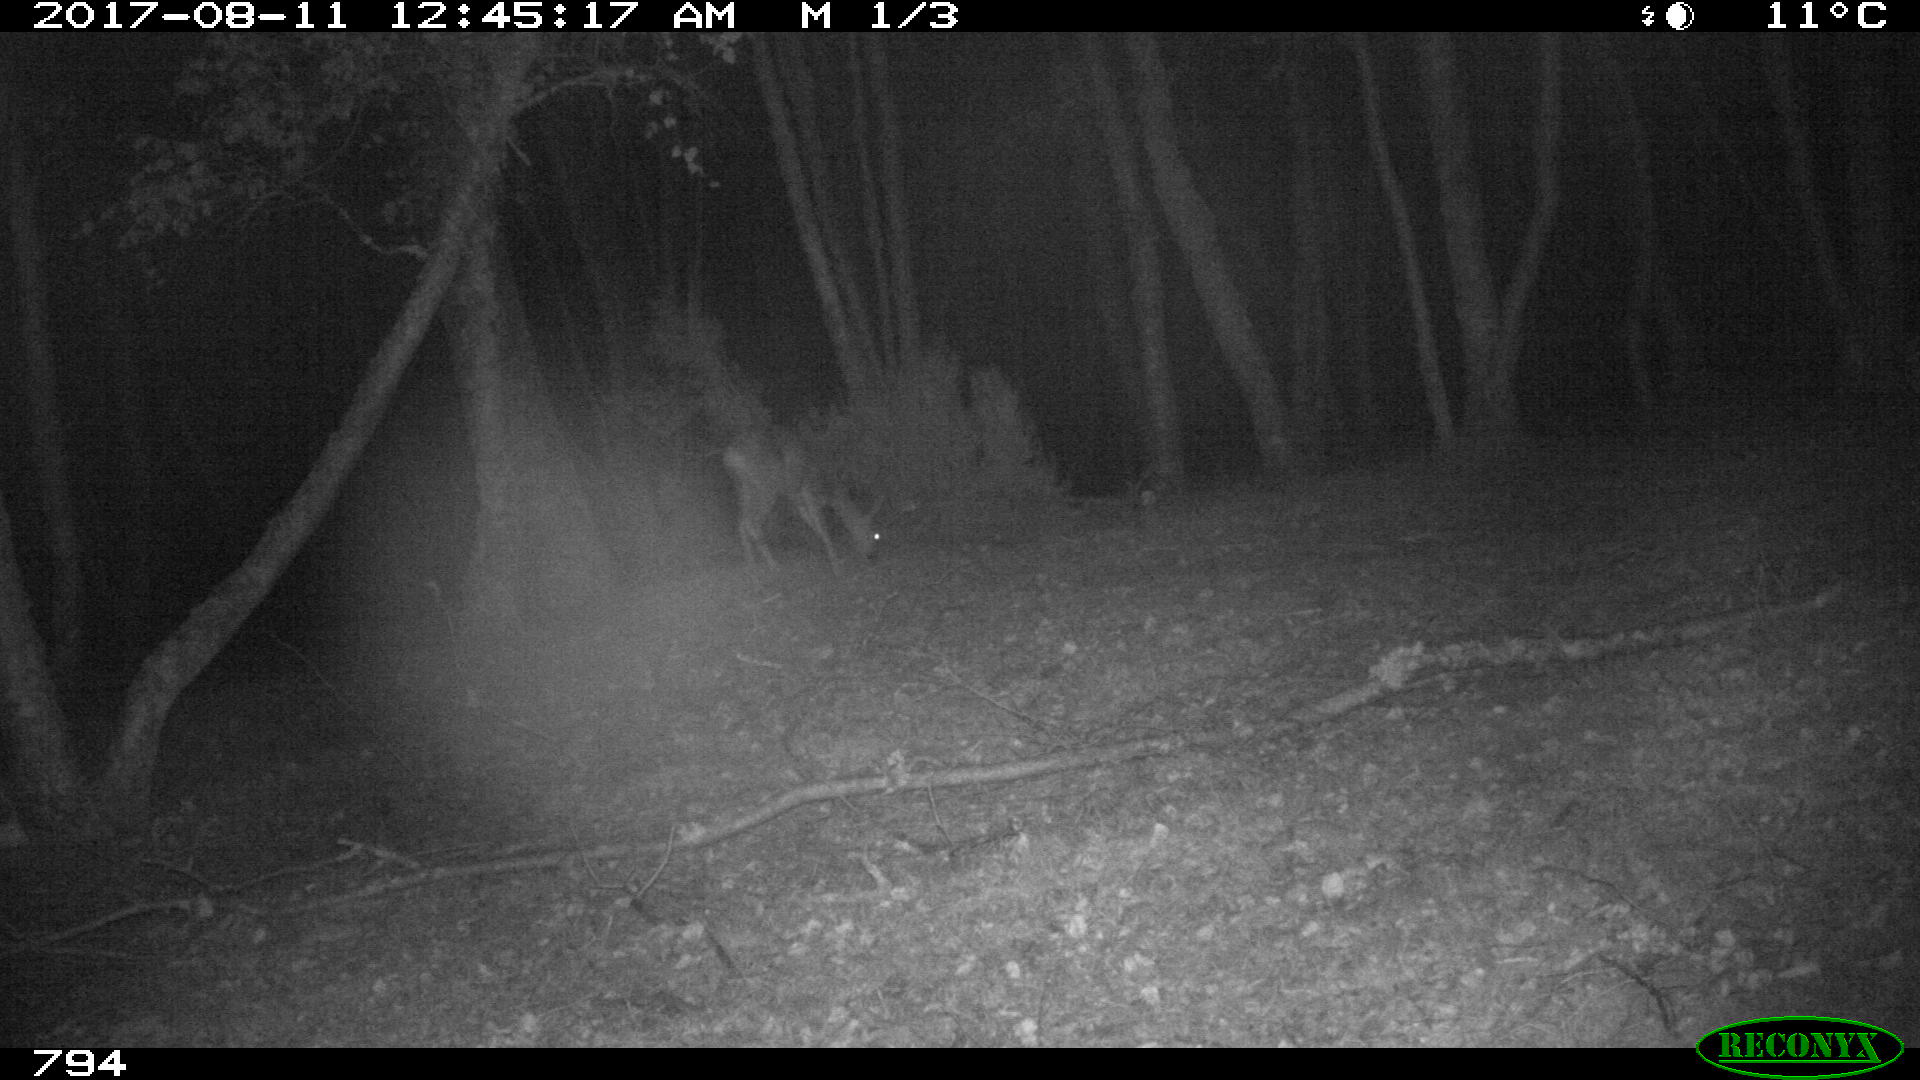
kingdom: Animalia
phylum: Chordata
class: Mammalia
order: Artiodactyla
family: Cervidae
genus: Capreolus
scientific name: Capreolus capreolus
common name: Western roe deer
